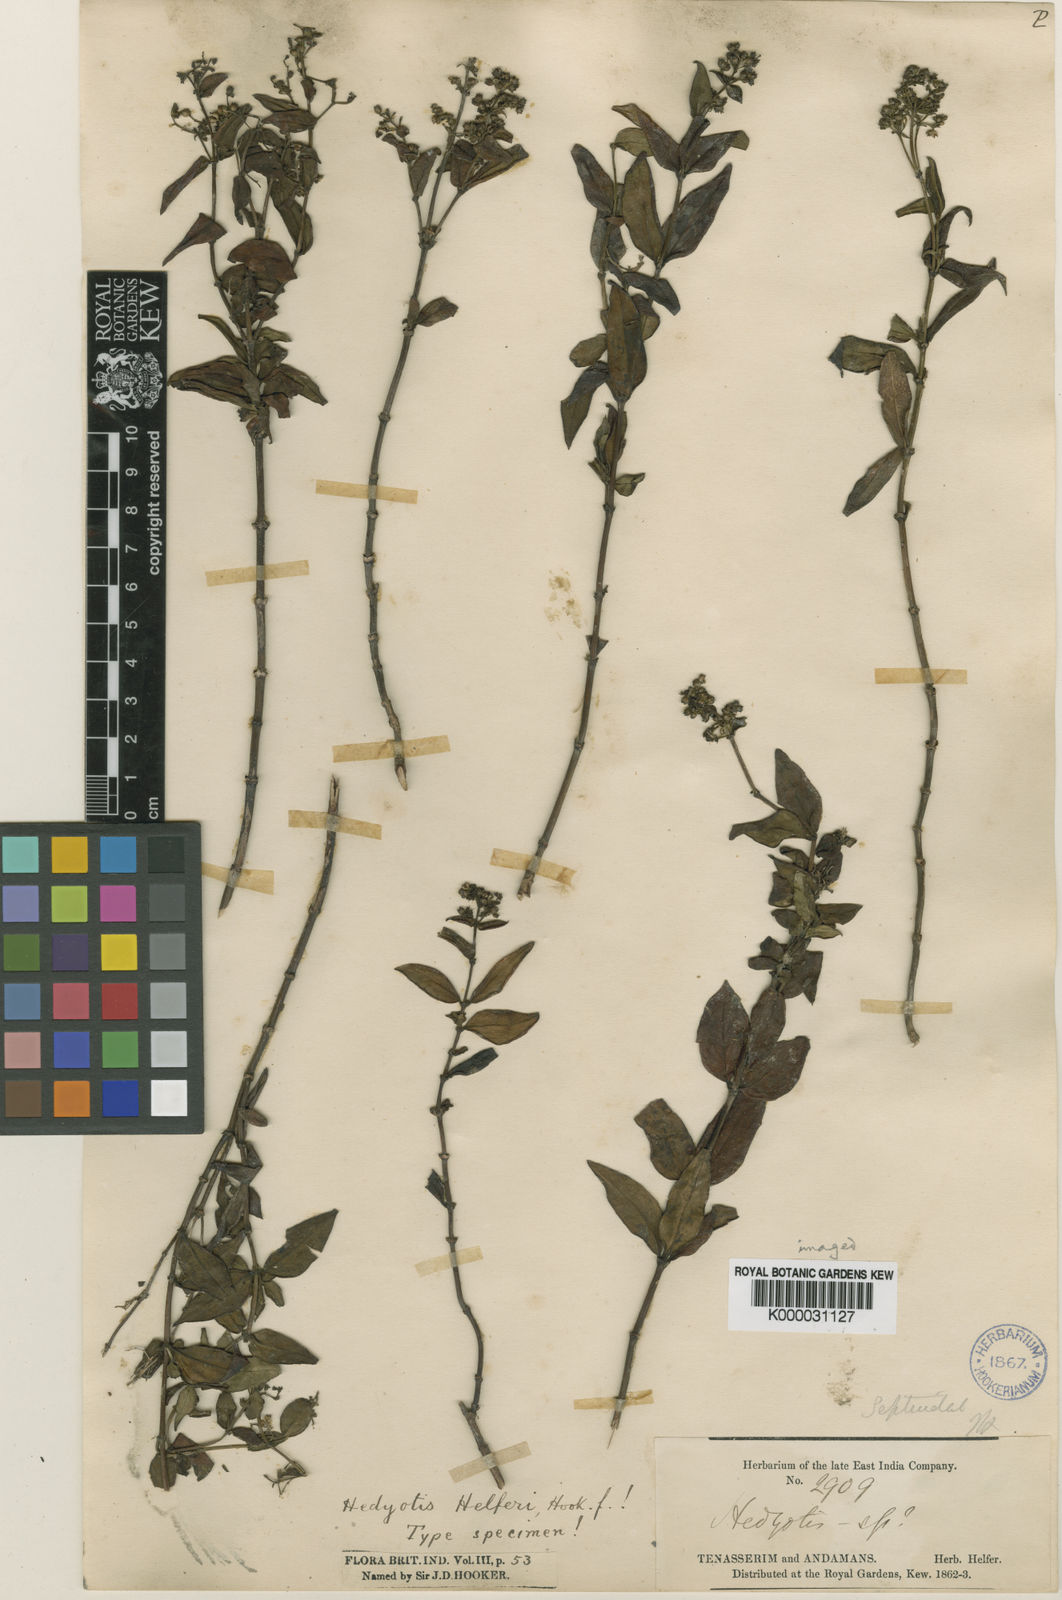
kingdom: Plantae
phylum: Tracheophyta
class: Magnoliopsida
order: Gentianales
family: Rubiaceae
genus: Hedyotis
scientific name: Hedyotis acutangula
